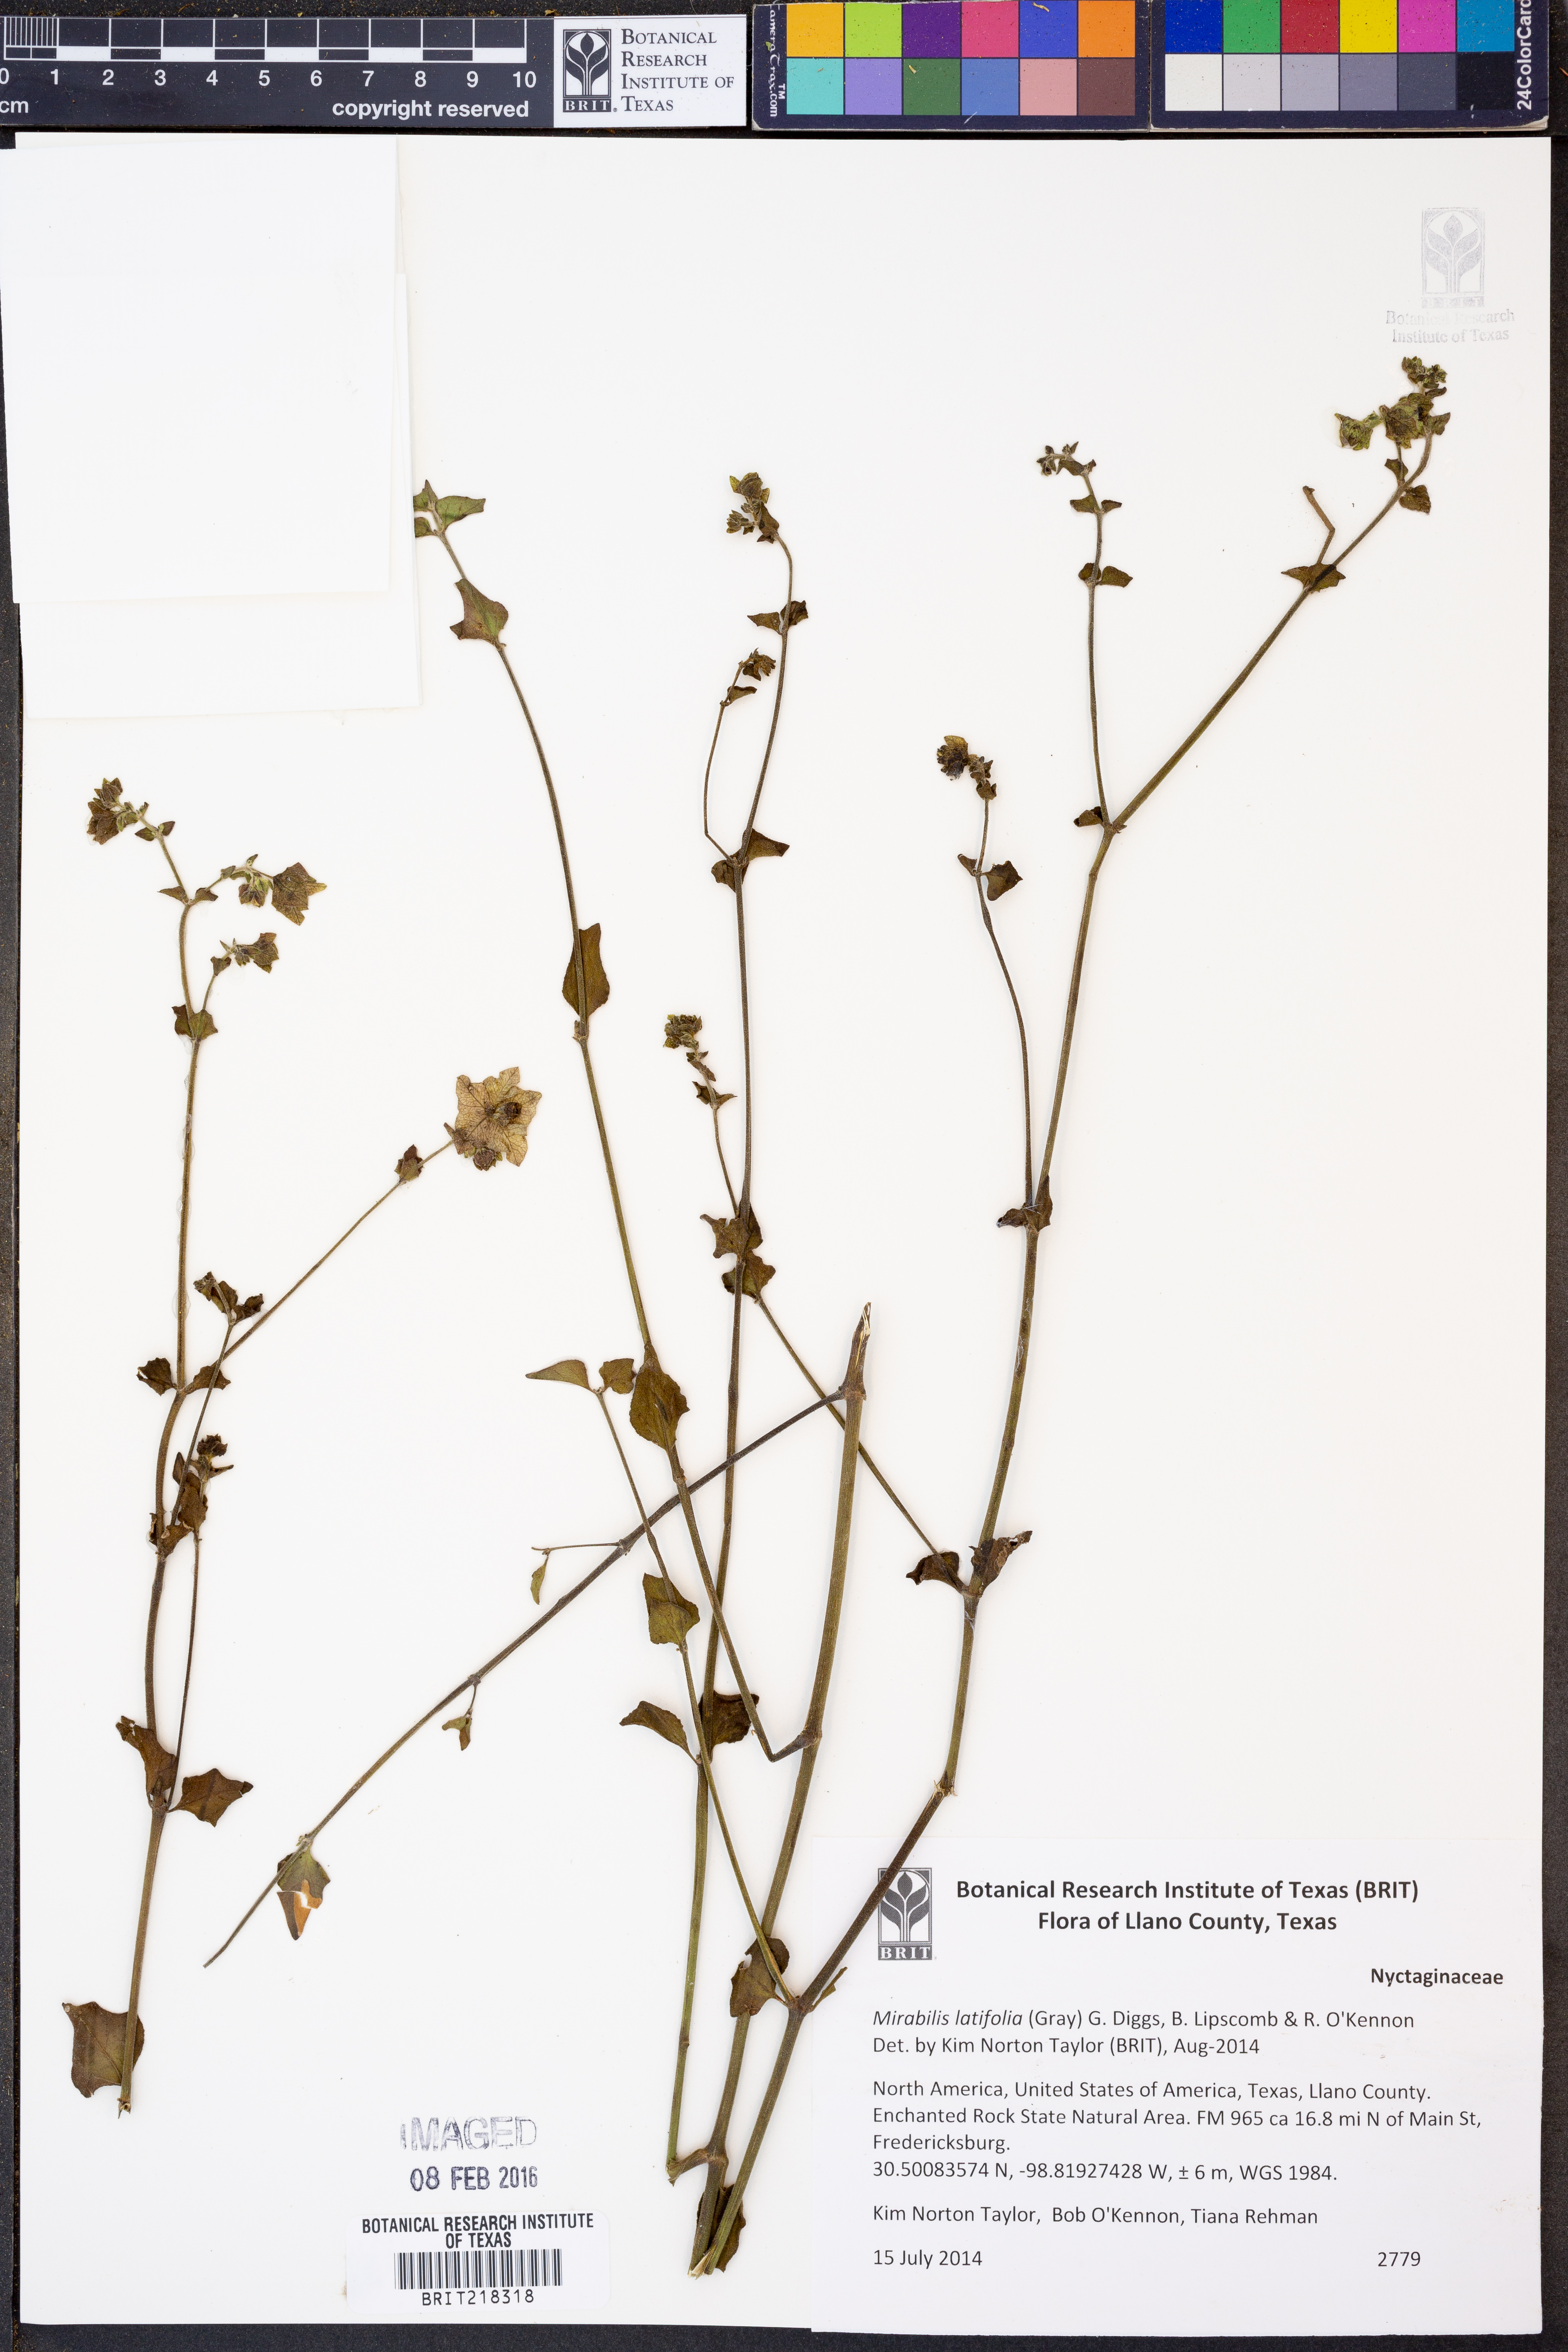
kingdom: Plantae
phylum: Tracheophyta
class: Magnoliopsida
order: Caryophyllales
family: Nyctaginaceae
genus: Mirabilis
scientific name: Mirabilis latifolia
